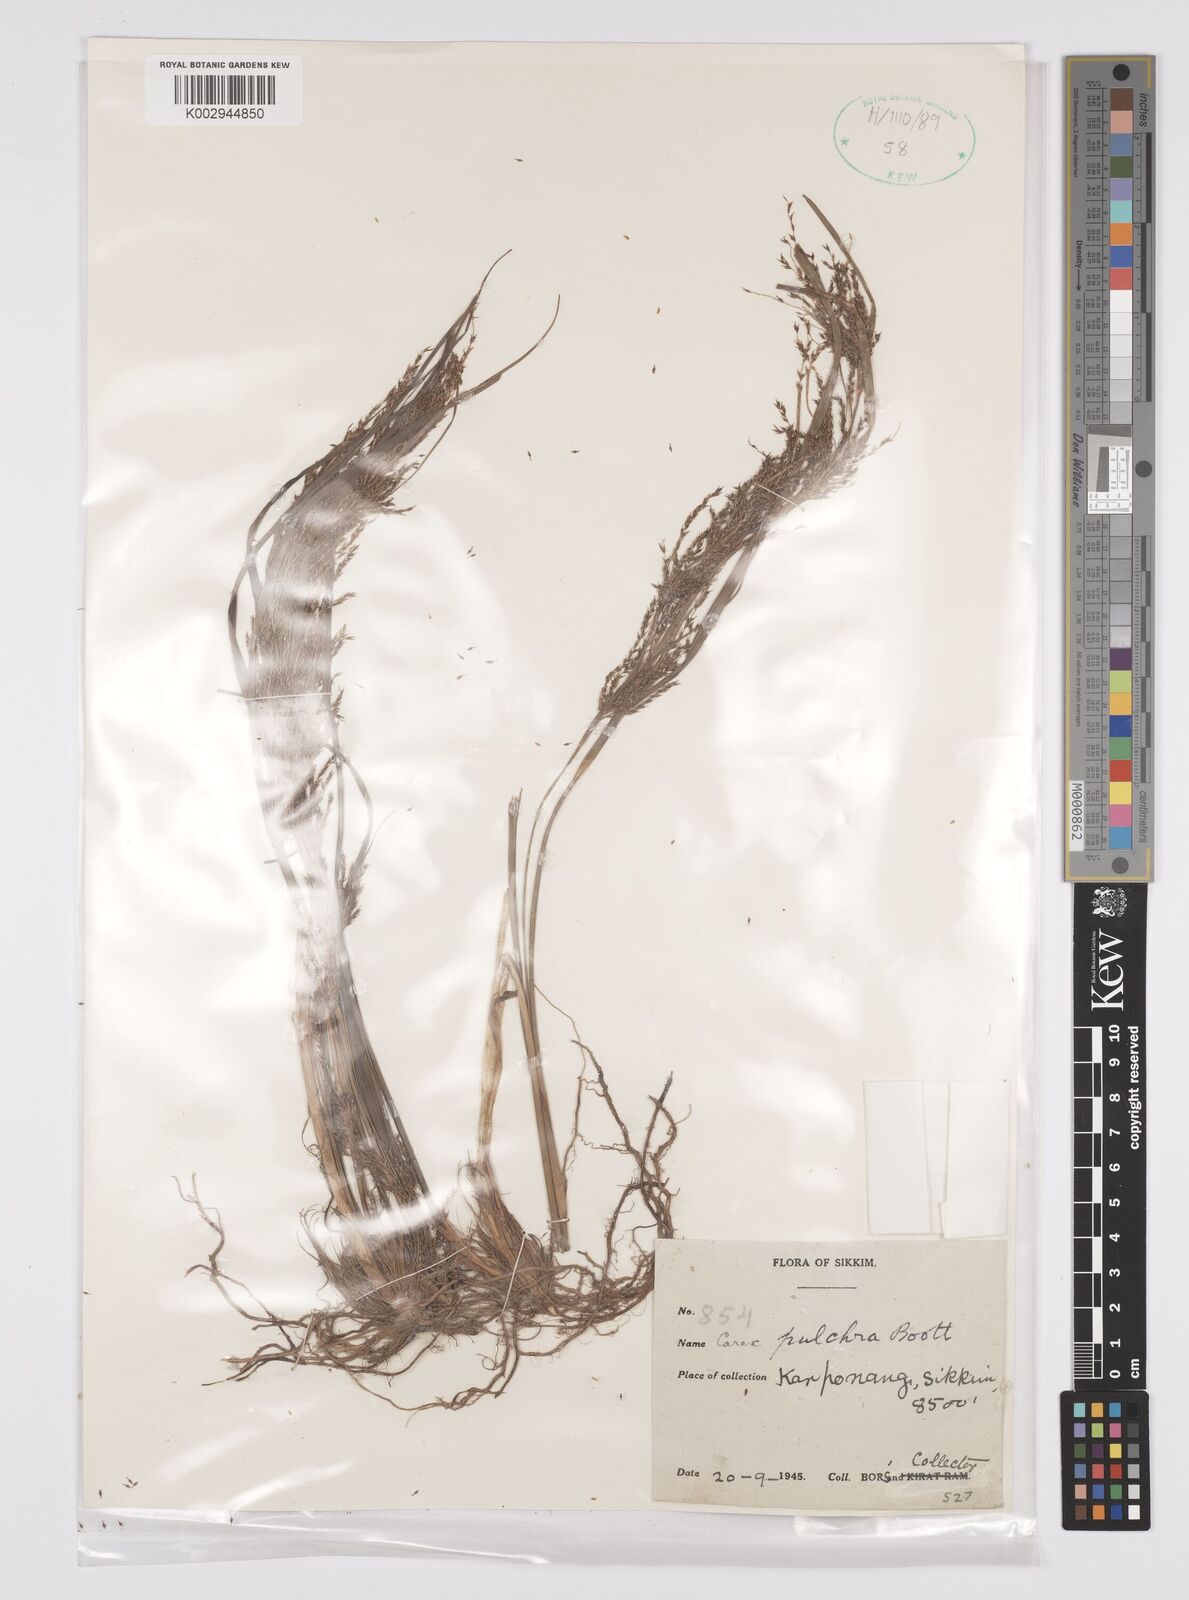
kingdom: Plantae
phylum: Tracheophyta
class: Liliopsida
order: Poales
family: Cyperaceae
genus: Carex
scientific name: Carex pulchra
